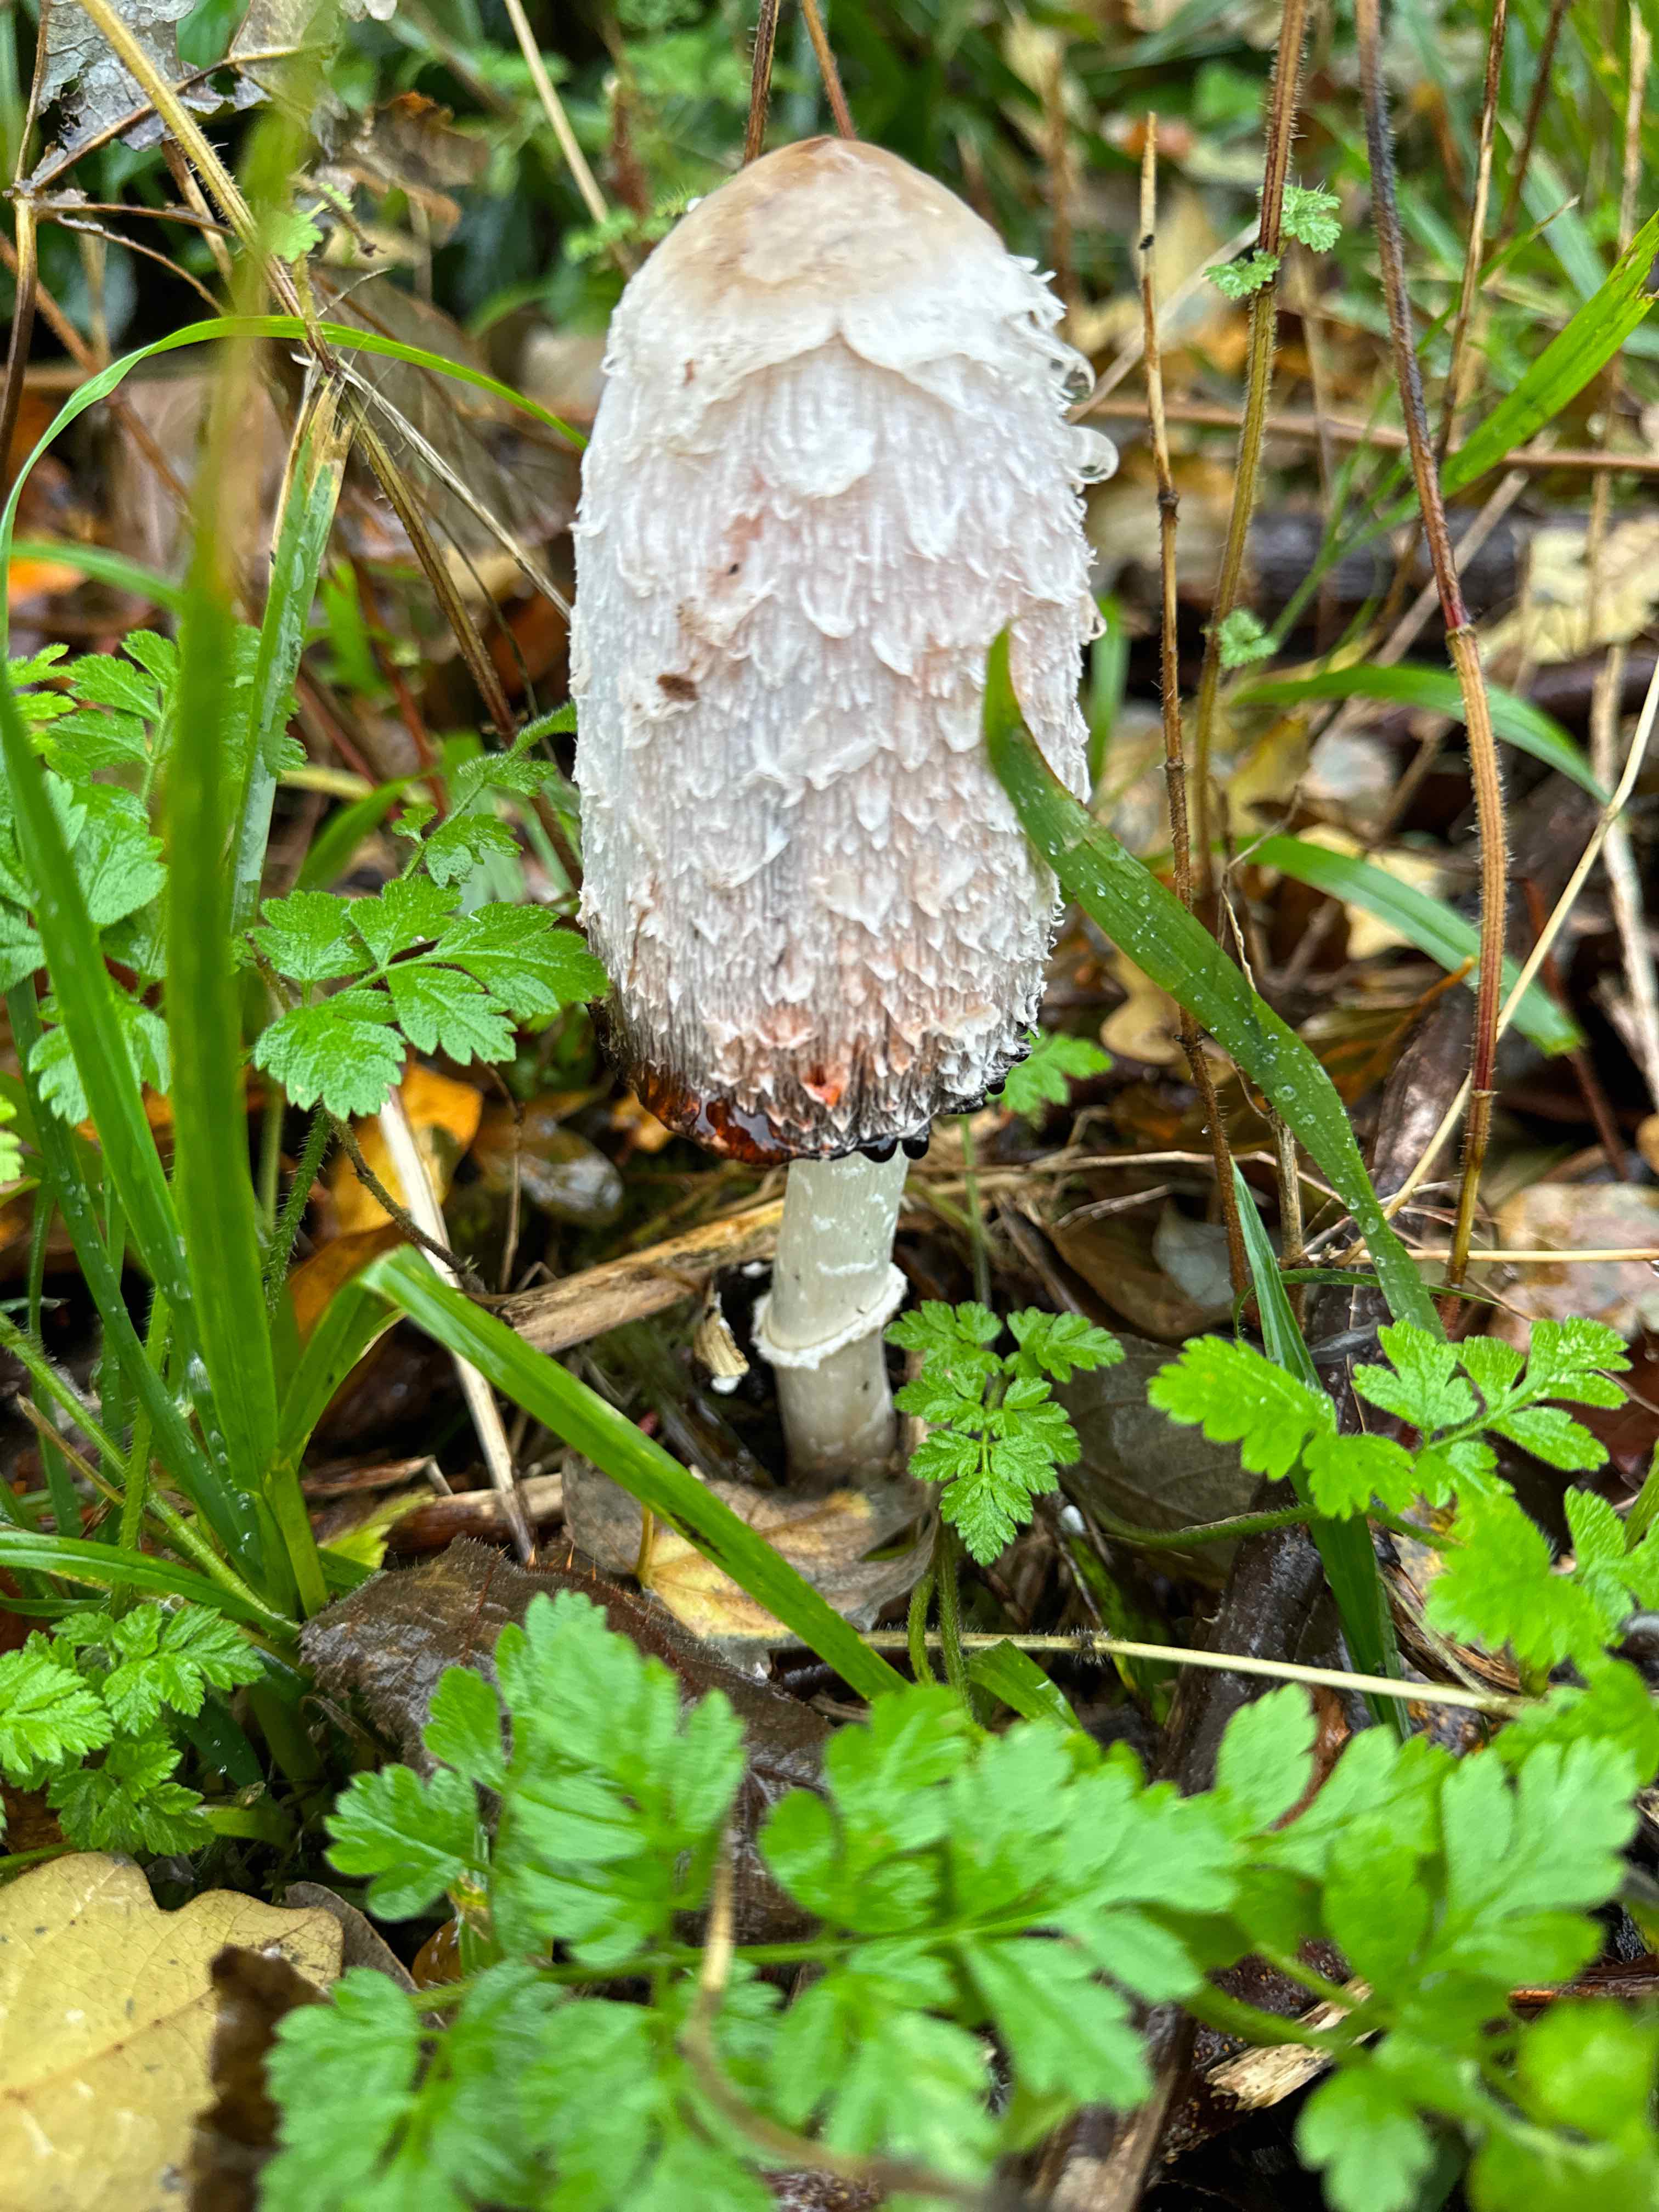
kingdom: Fungi
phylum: Basidiomycota
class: Agaricomycetes
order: Agaricales
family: Agaricaceae
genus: Coprinus
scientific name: Coprinus comatus
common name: stor parykhat
